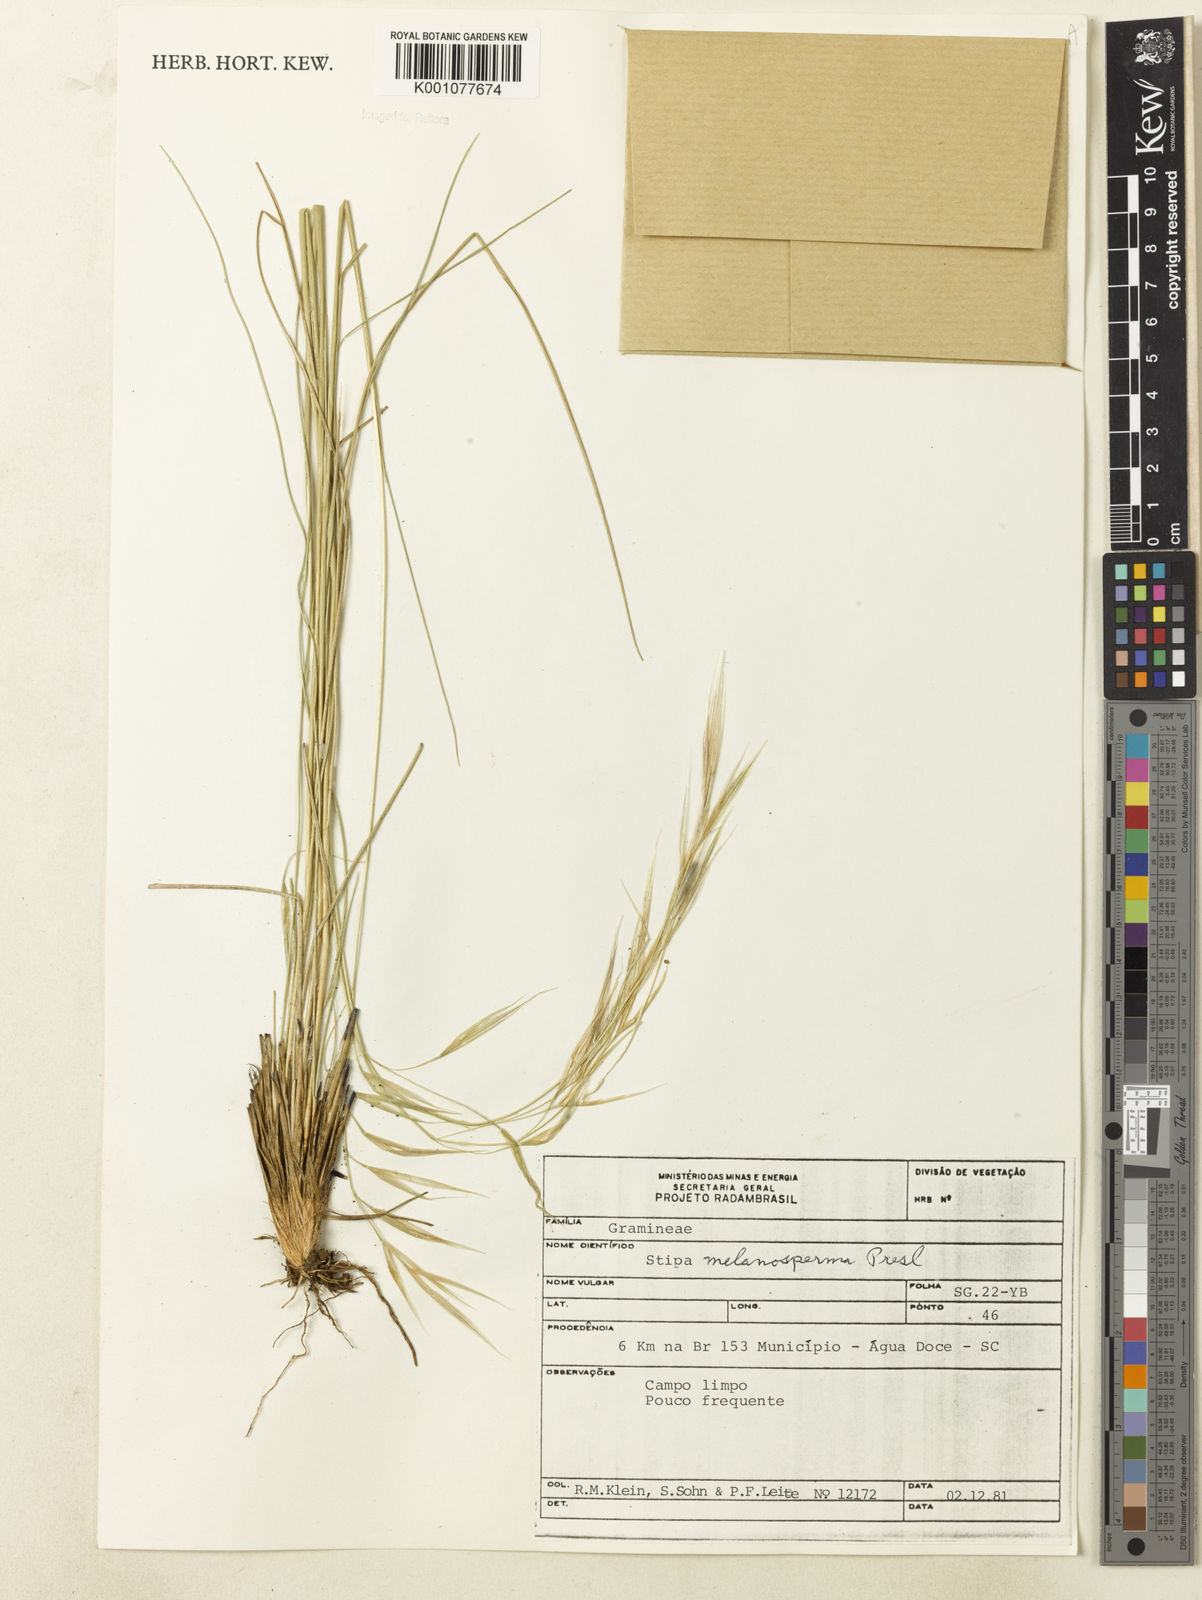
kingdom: Plantae
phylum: Tracheophyta
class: Liliopsida
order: Poales
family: Poaceae
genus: Nassella
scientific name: Nassella melanosperma
